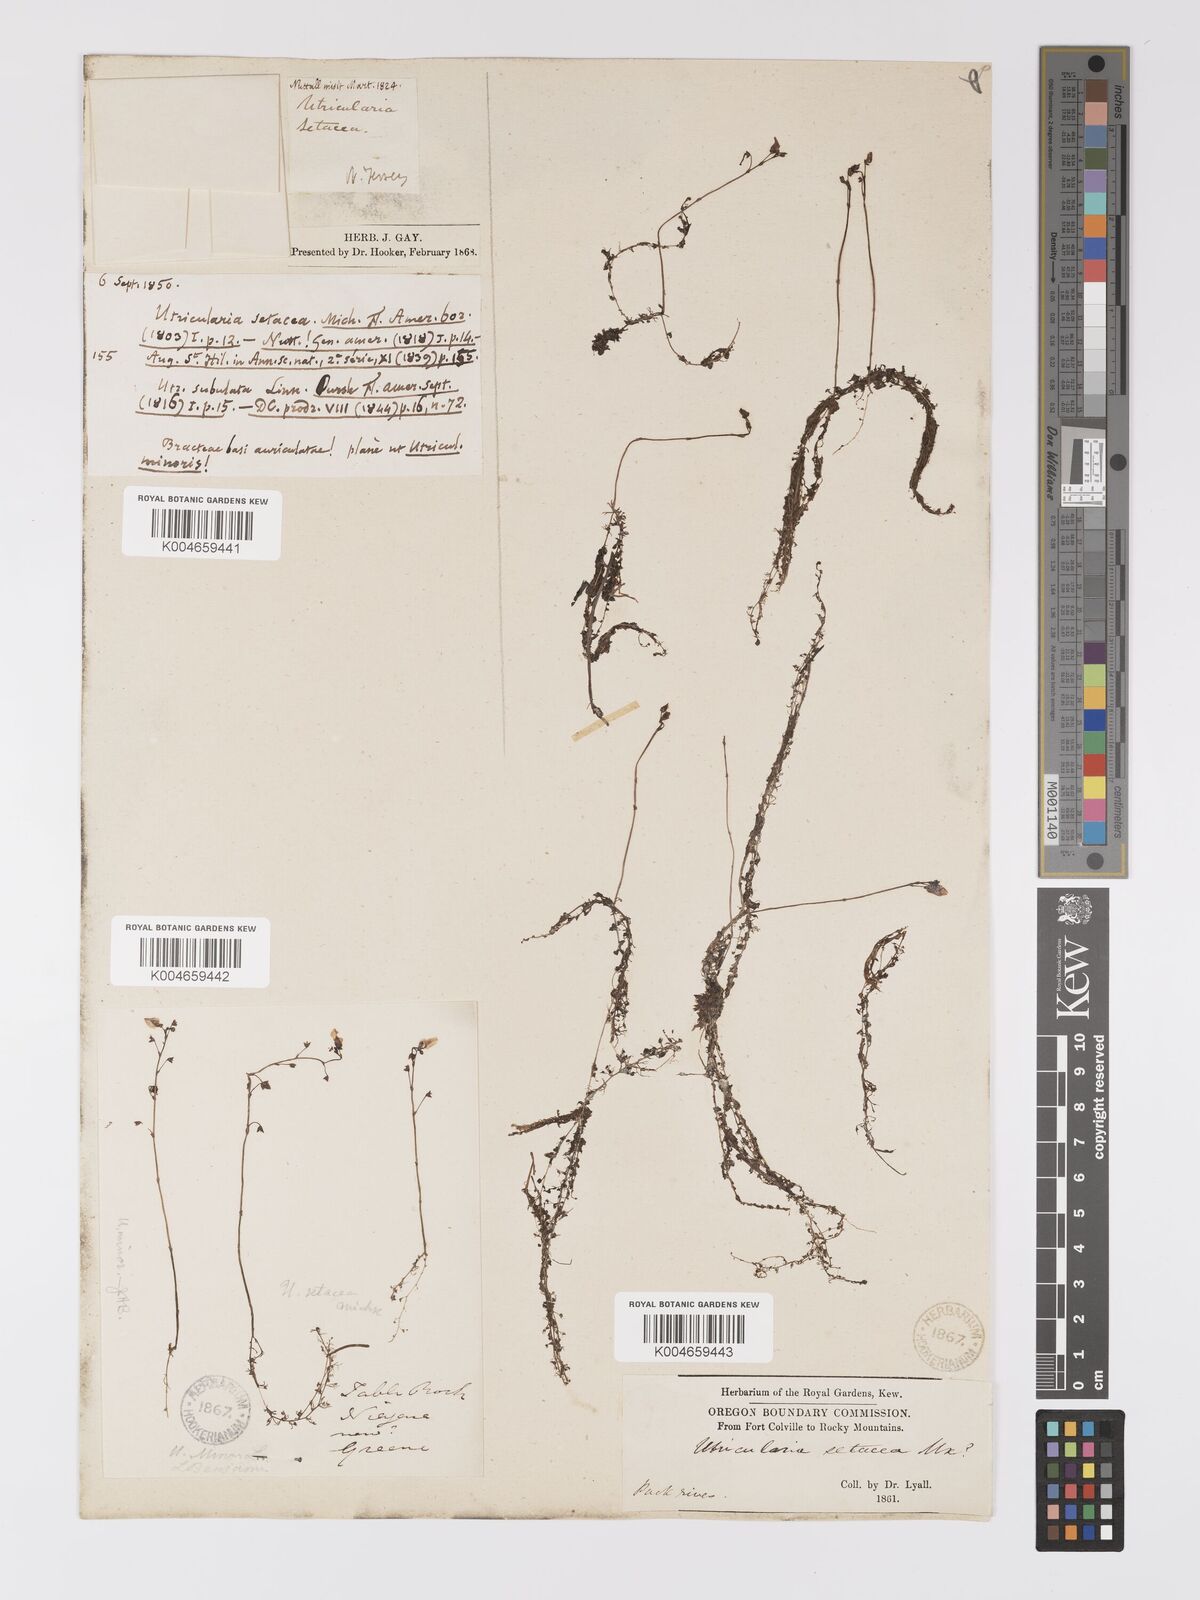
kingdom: Plantae
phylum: Tracheophyta
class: Magnoliopsida
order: Lamiales
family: Lentibulariaceae
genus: Utricularia
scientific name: Utricularia minor
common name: Lesser bladderwort
